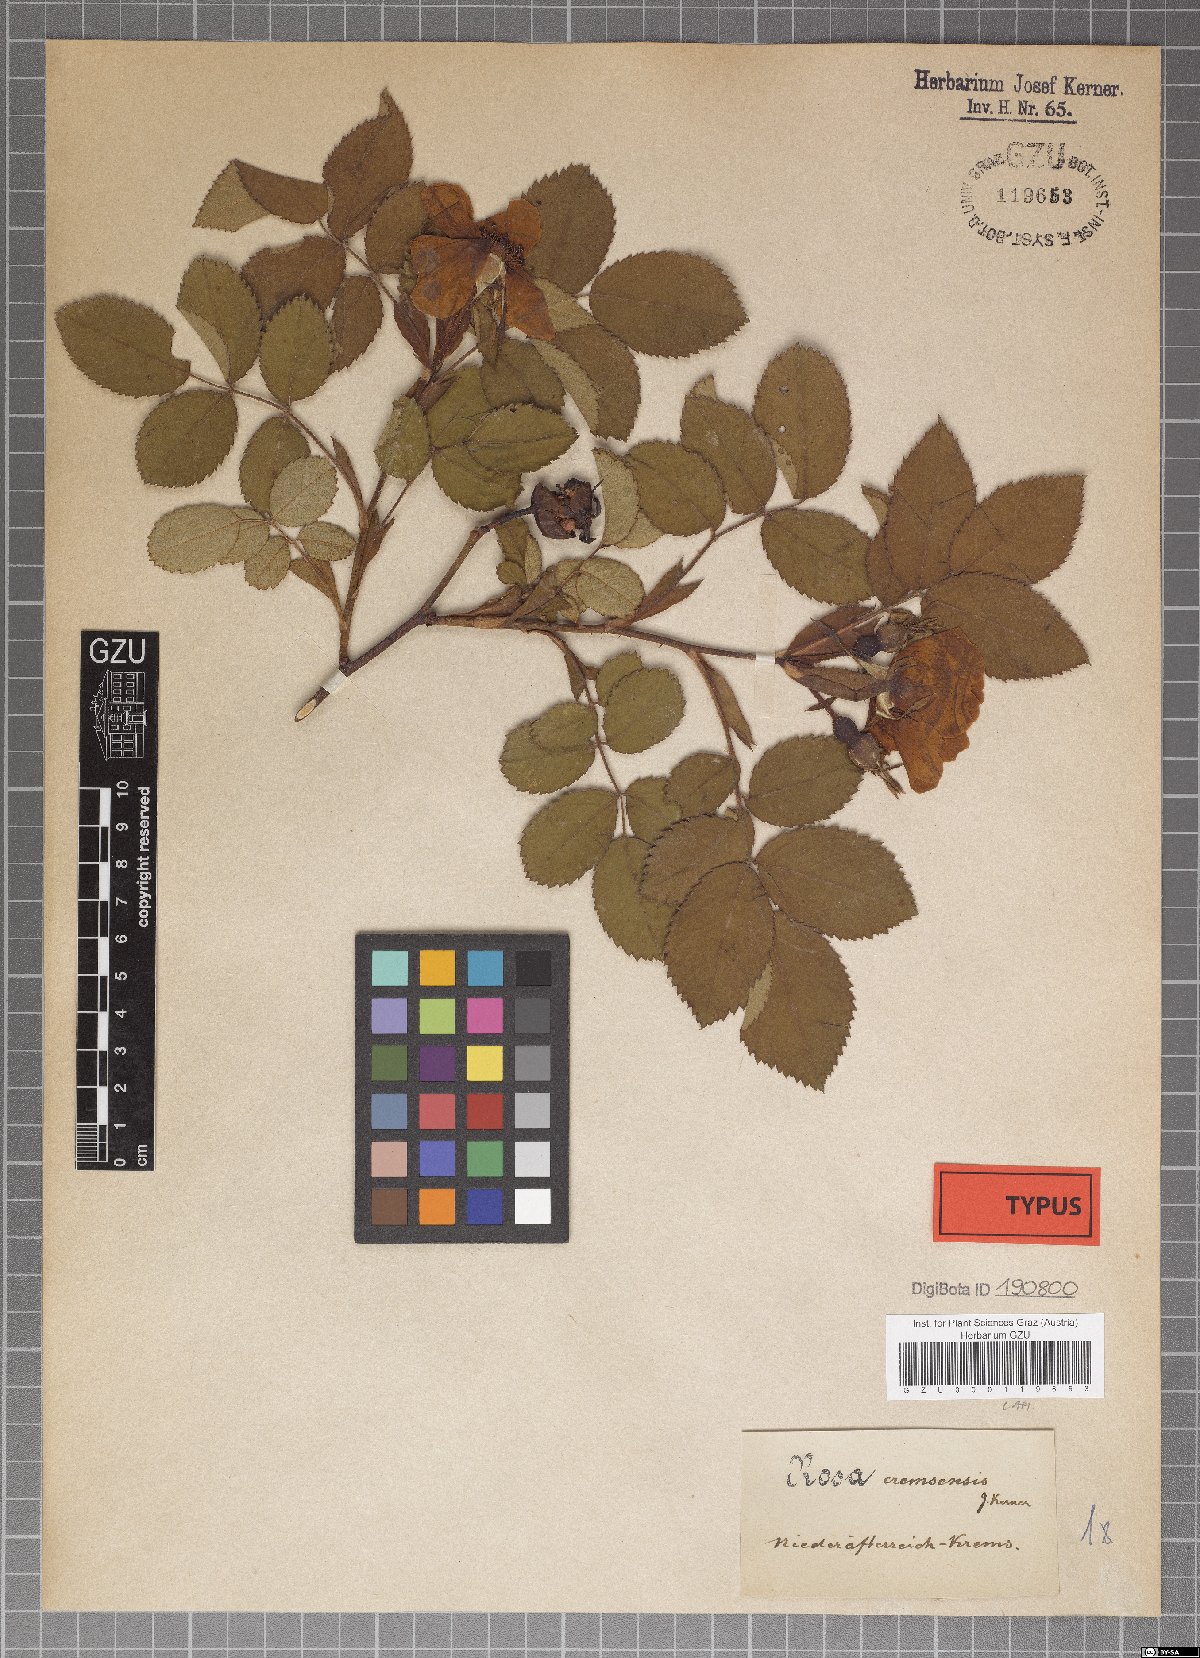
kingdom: Plantae
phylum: Tracheophyta
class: Magnoliopsida
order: Rosales
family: Rosaceae
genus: Rosa
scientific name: Rosa mollis
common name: Rose
